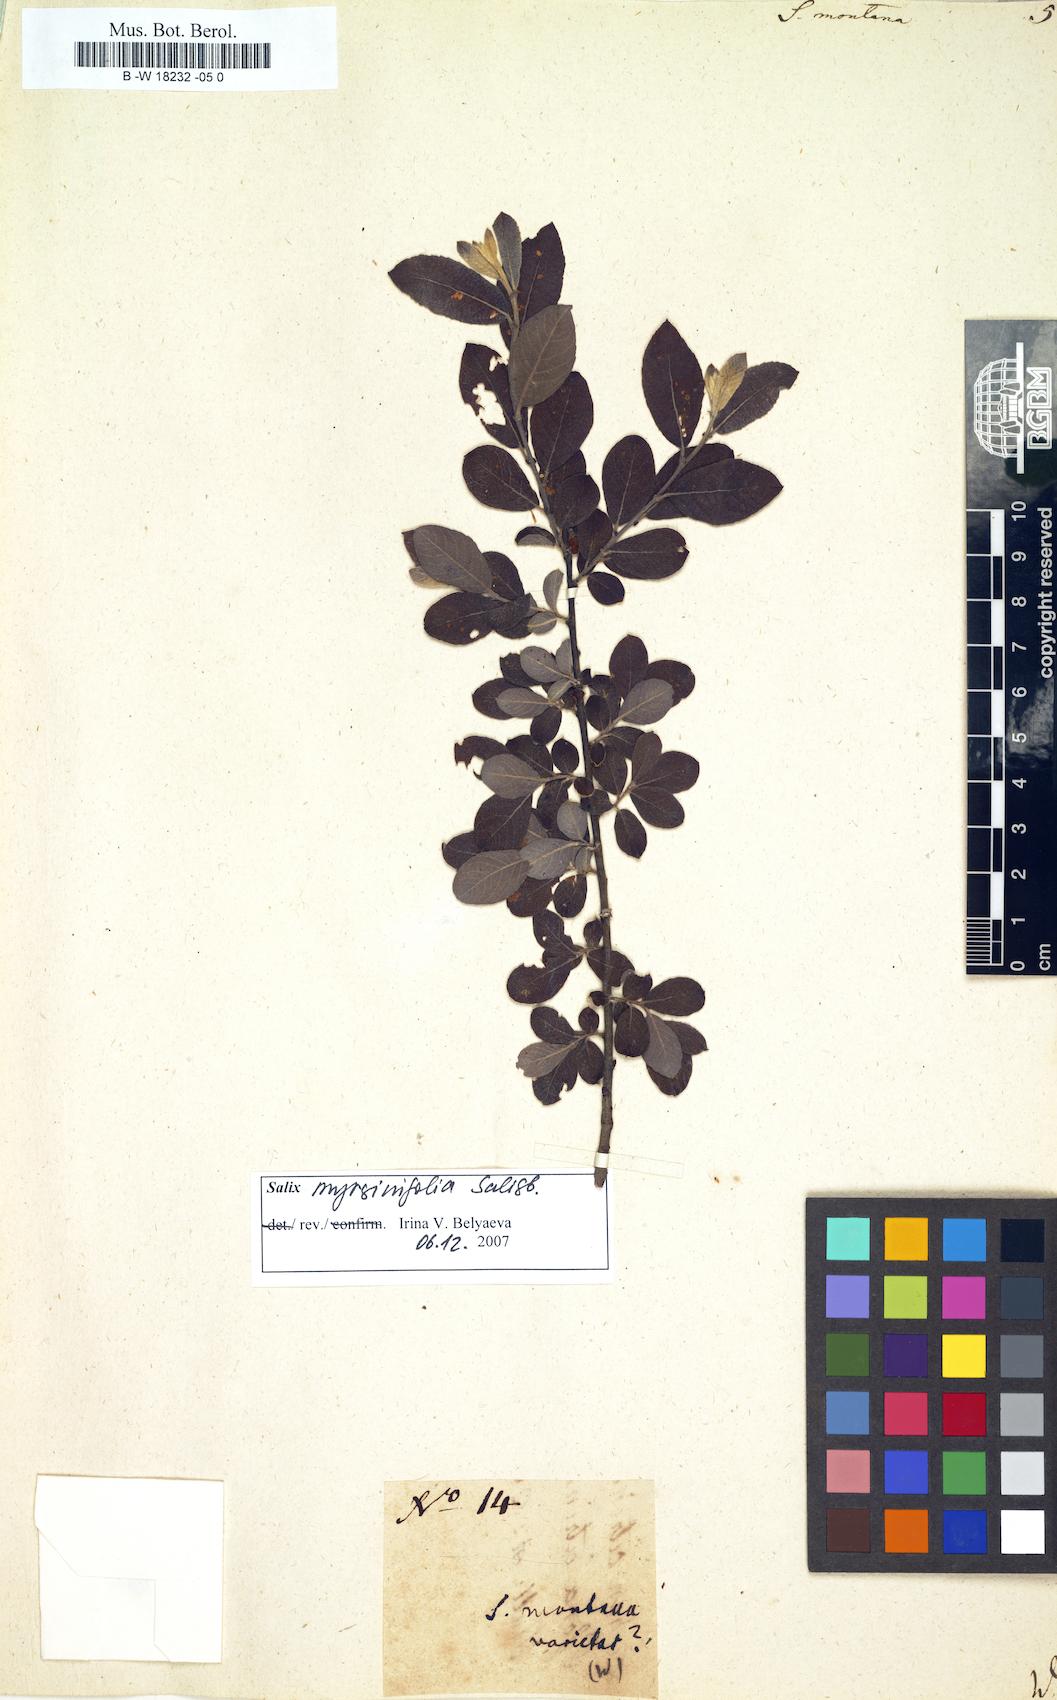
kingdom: Plantae
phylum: Tracheophyta
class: Magnoliopsida
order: Malpighiales
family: Salicaceae
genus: Salix
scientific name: Salix montana
